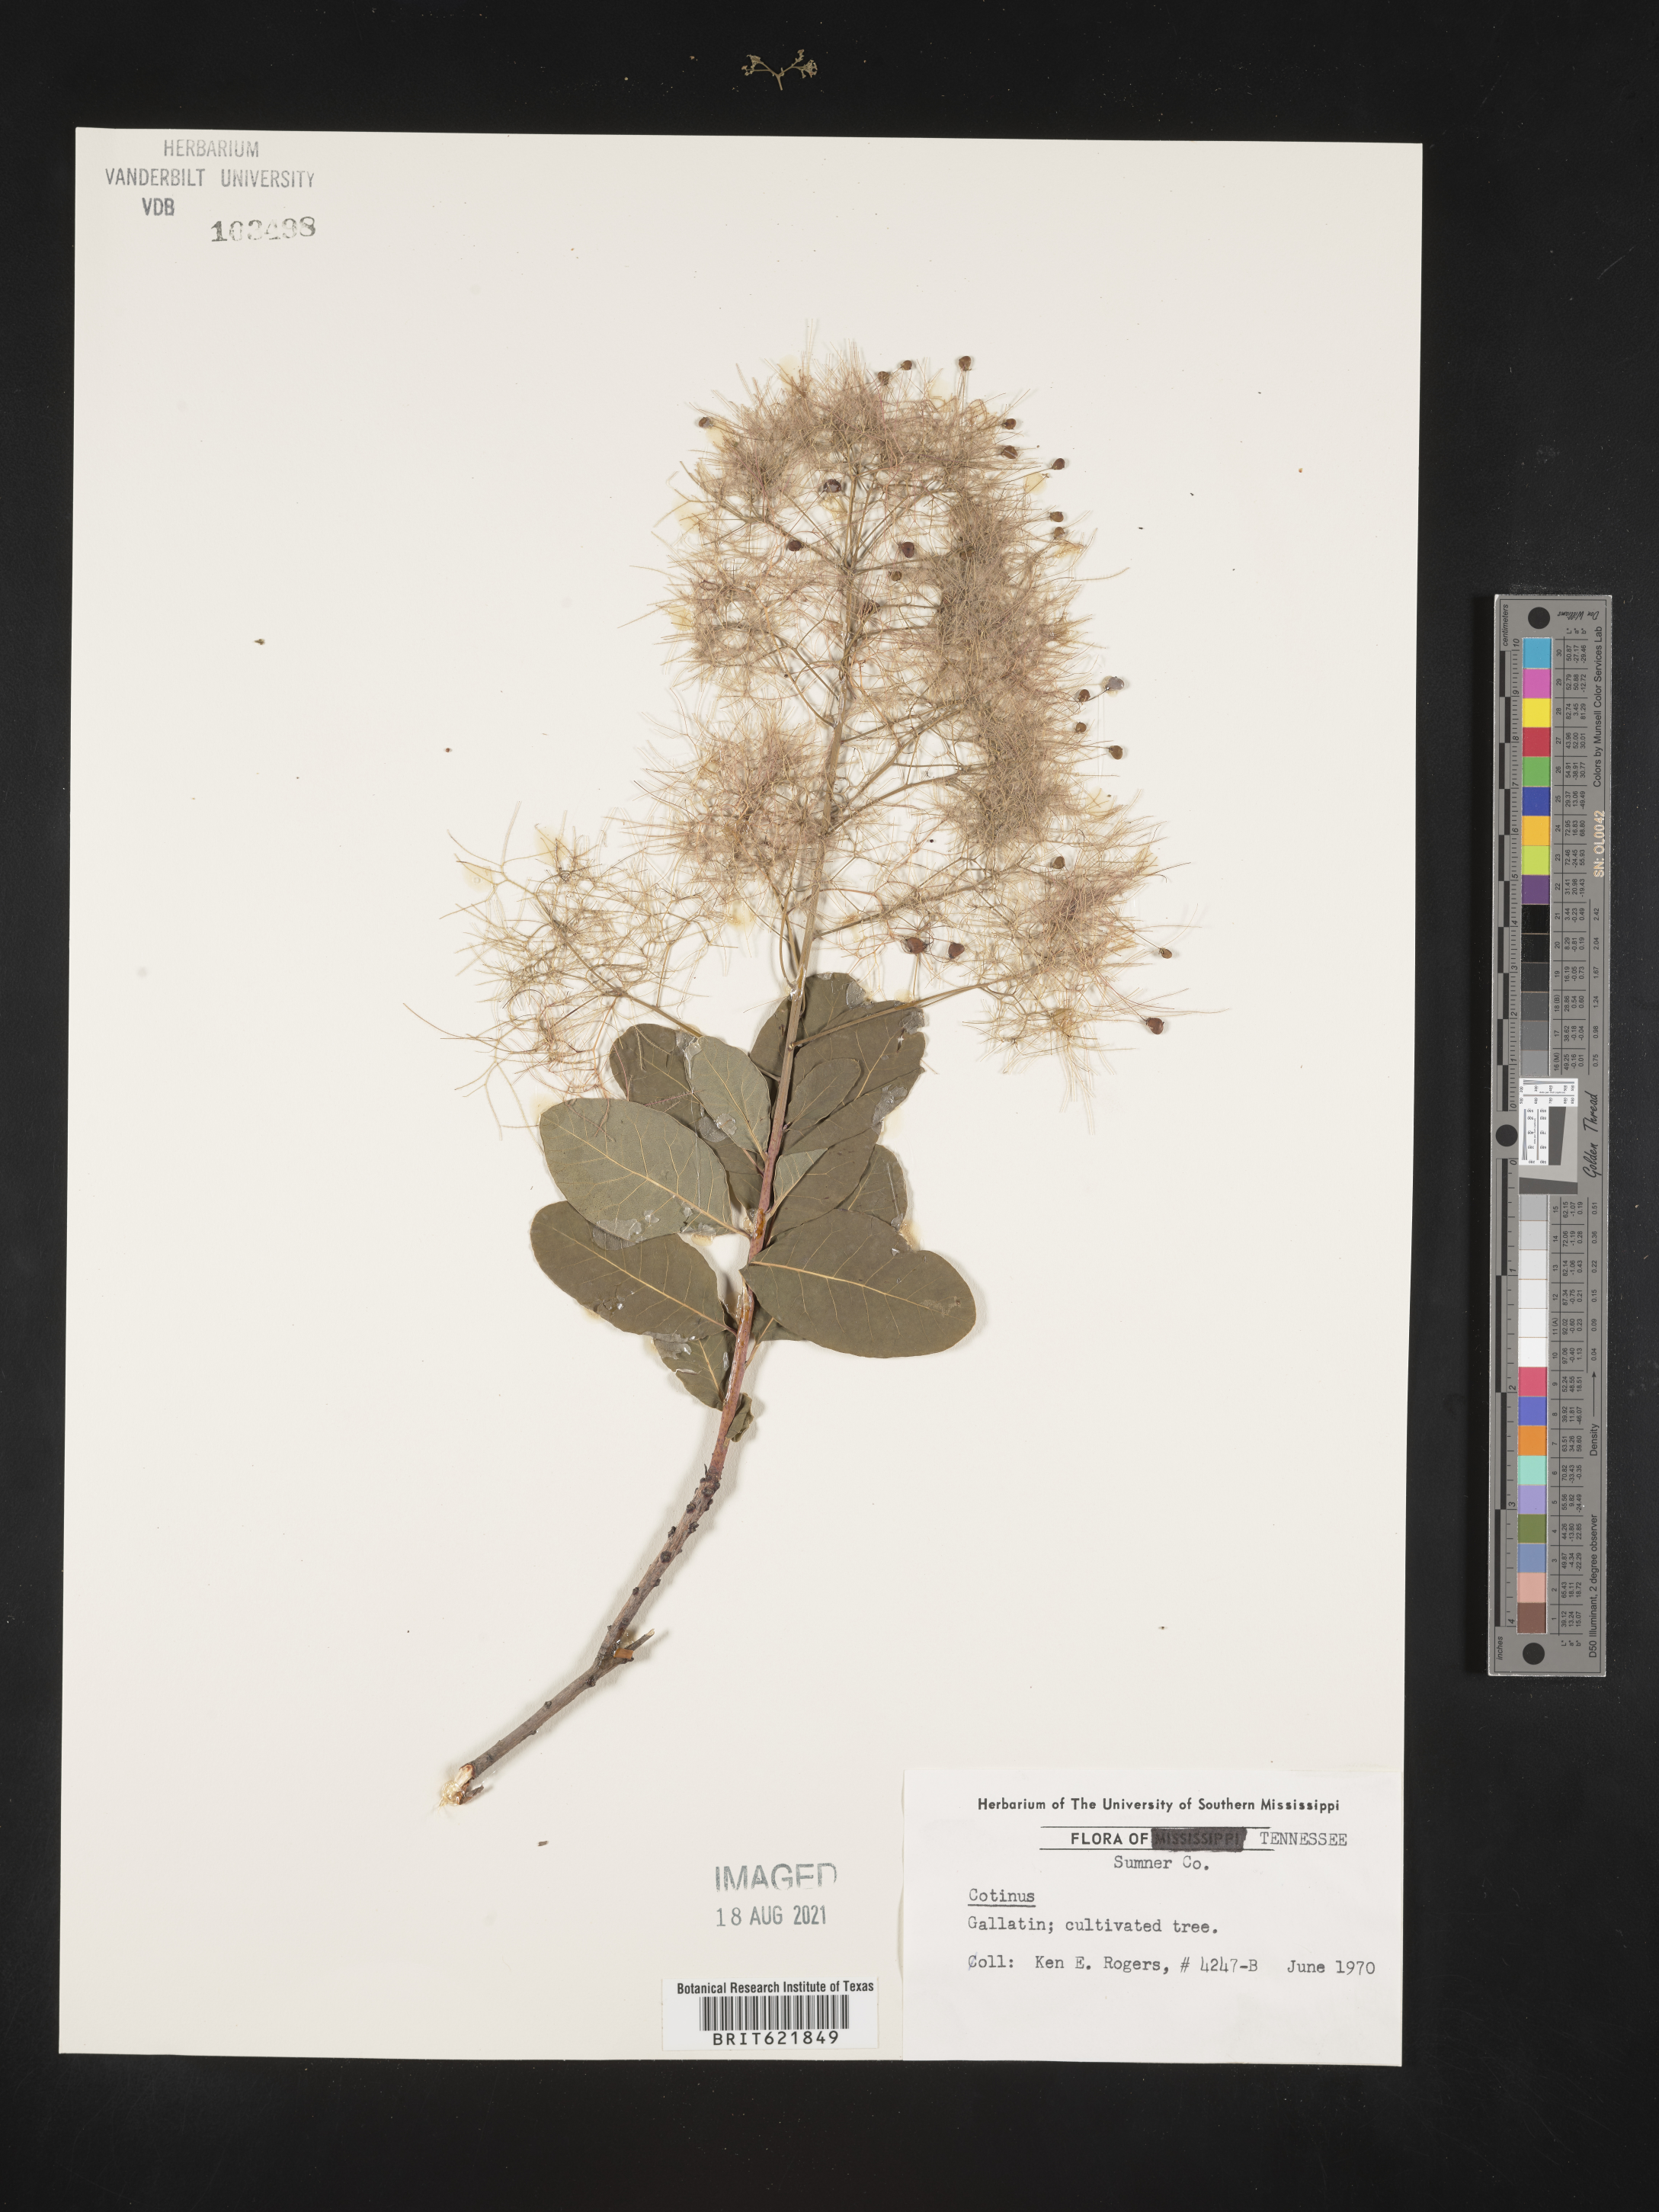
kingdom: Plantae
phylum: Tracheophyta
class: Magnoliopsida
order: Sapindales
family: Anacardiaceae
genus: Cotinus
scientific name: Cotinus
